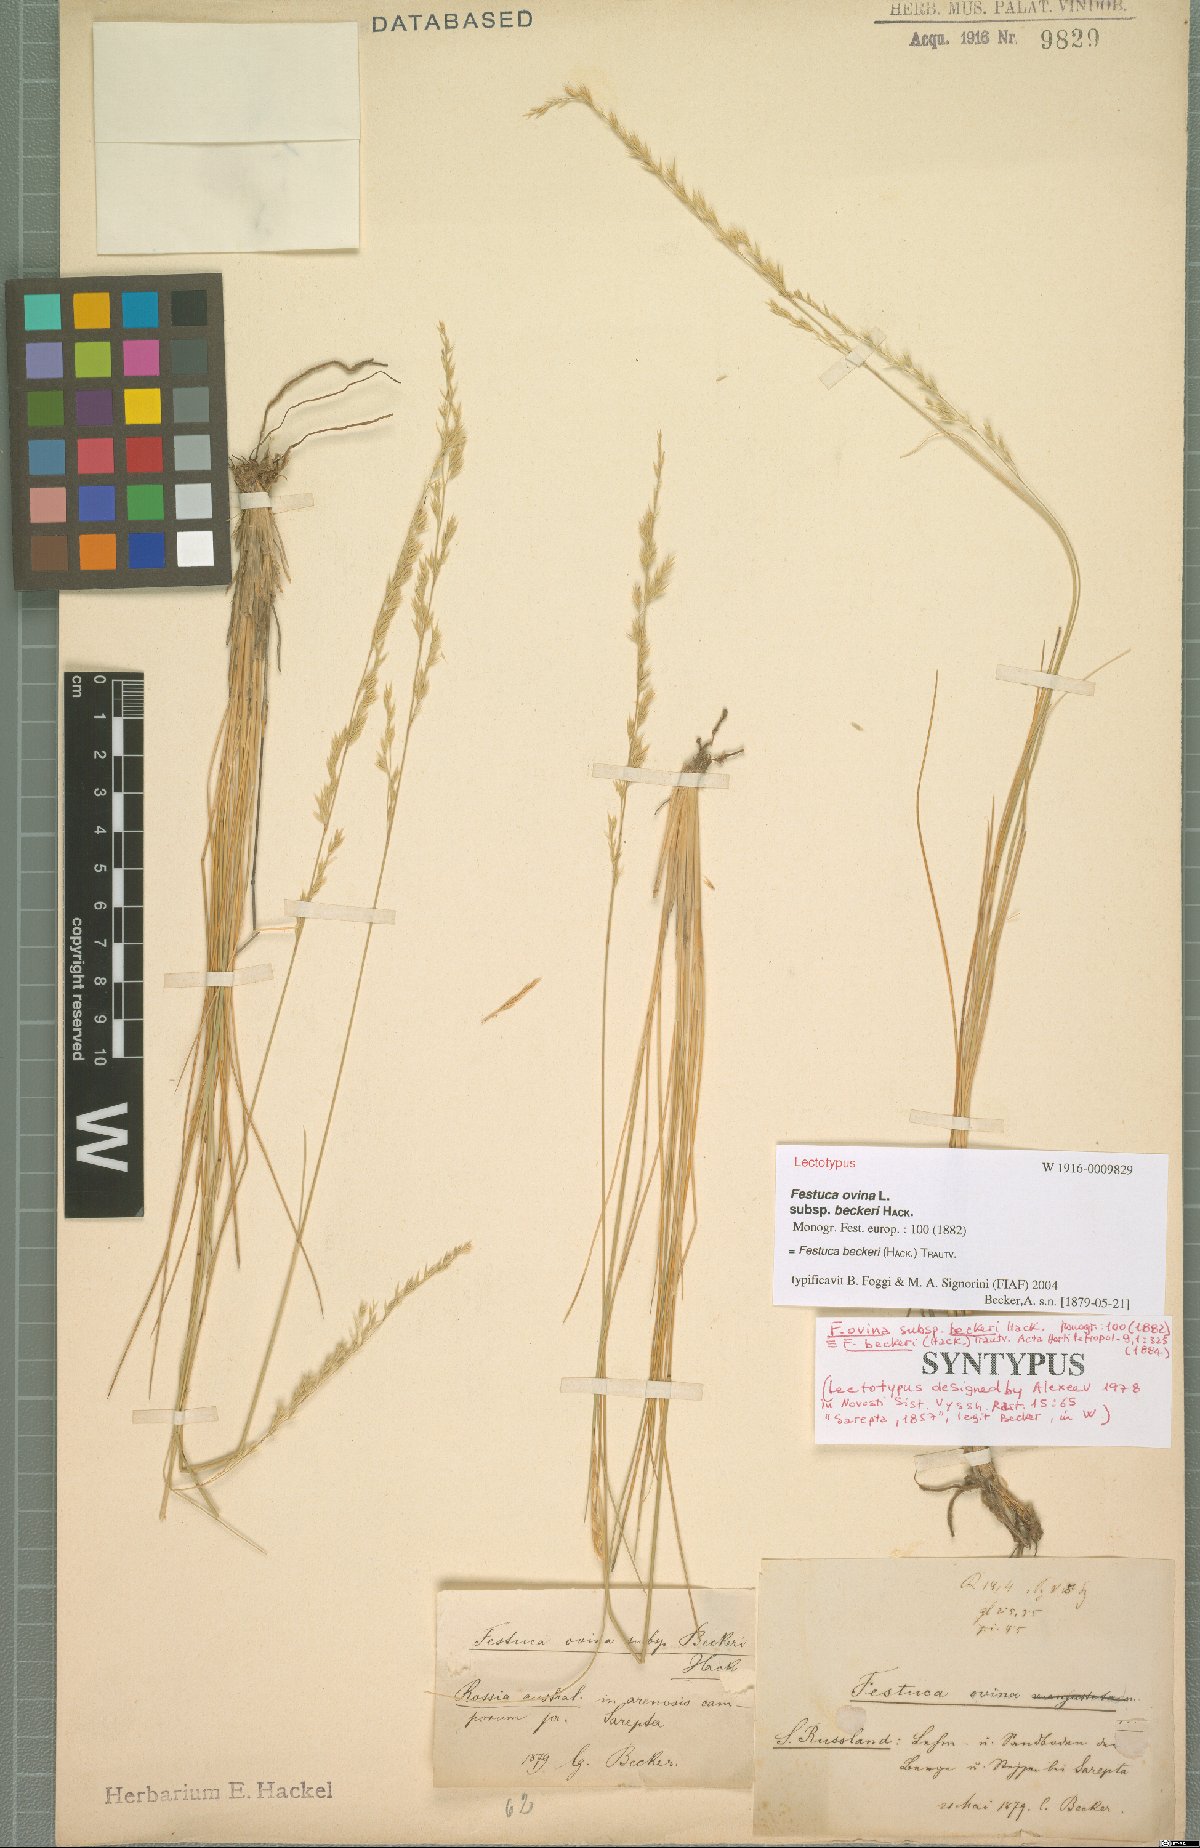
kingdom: Plantae
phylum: Tracheophyta
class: Liliopsida
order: Poales
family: Poaceae
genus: Festuca
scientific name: Festuca beckeri
